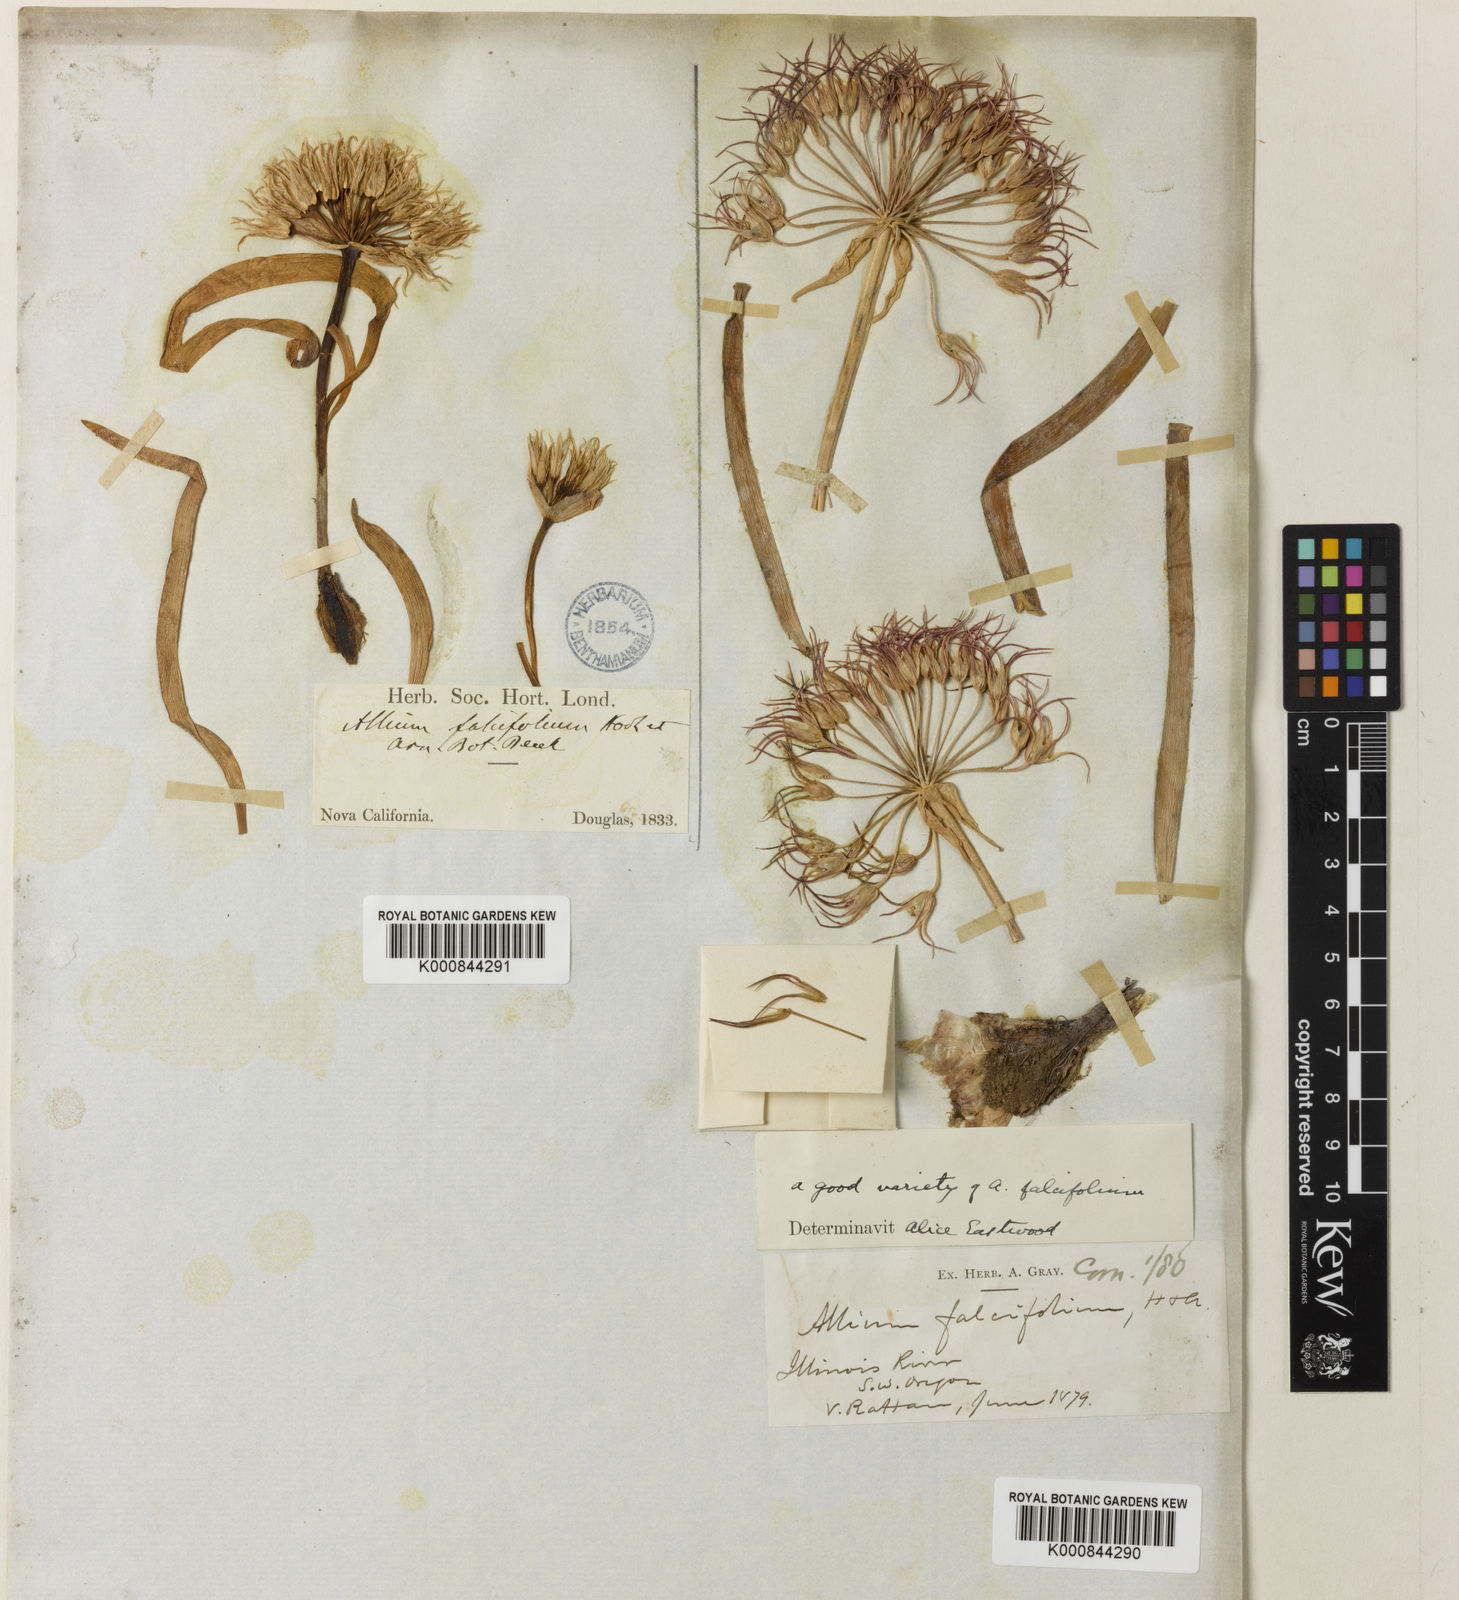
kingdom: Plantae
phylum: Tracheophyta
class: Liliopsida
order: Asparagales
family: Amaryllidaceae
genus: Allium
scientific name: Allium falcifolium
